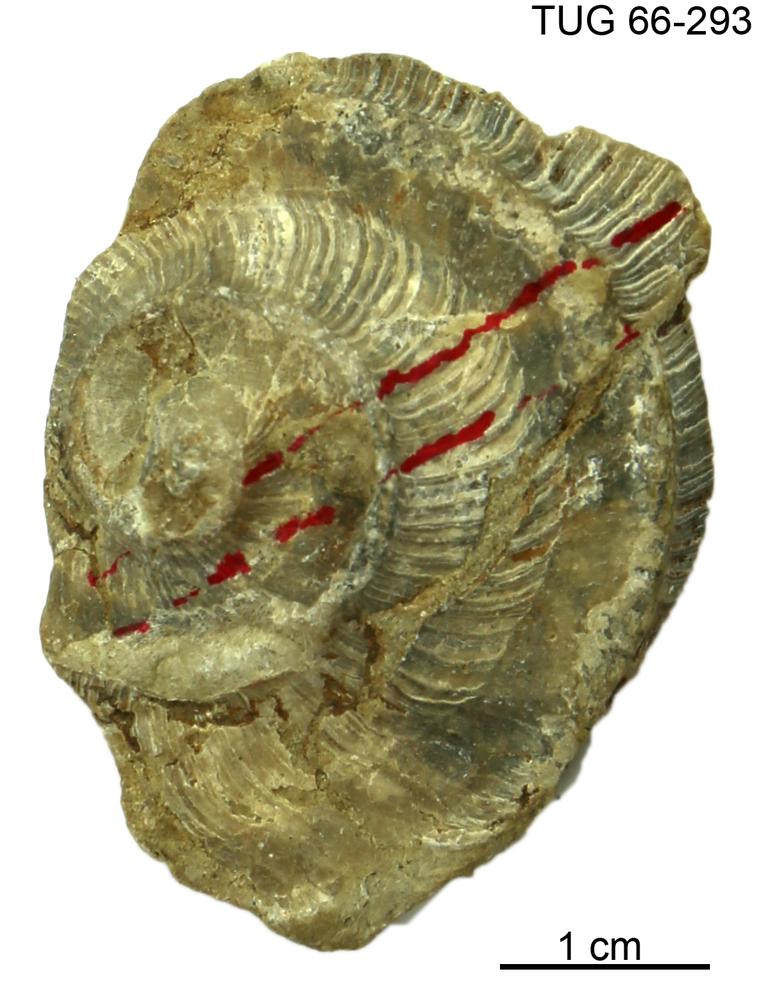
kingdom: Animalia
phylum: Mollusca
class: Cephalopoda
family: Trocholitidae
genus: Discoceras
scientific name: Discoceras
